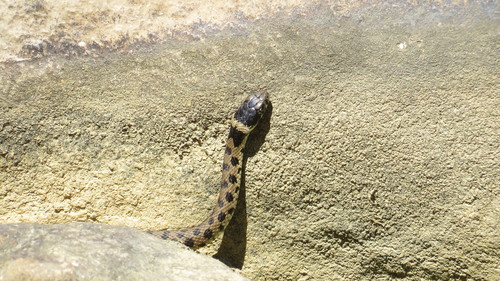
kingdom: Animalia
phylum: Chordata
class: Squamata
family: Colubridae
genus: Natrix
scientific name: Natrix astreptophora
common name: Red-eyed grass snake
